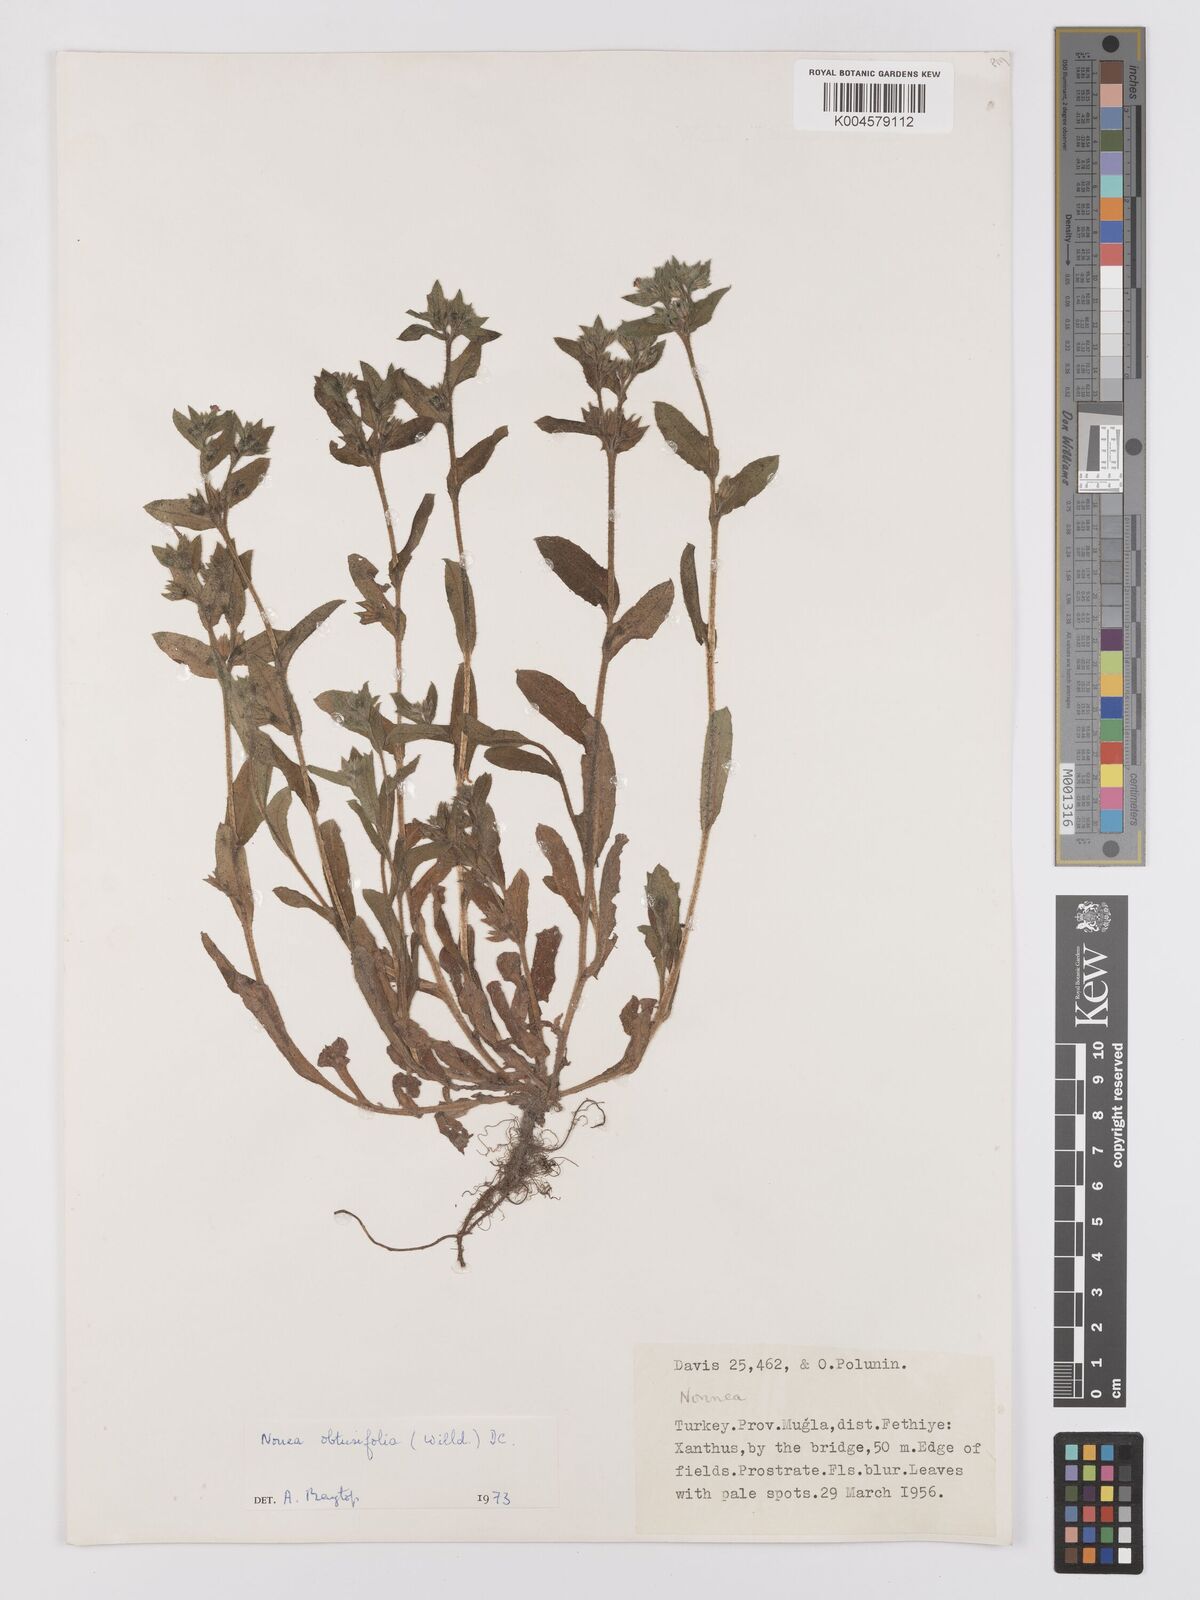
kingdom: Plantae
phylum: Tracheophyta
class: Magnoliopsida
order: Boraginales
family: Boraginaceae
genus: Nonea
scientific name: Nonea
